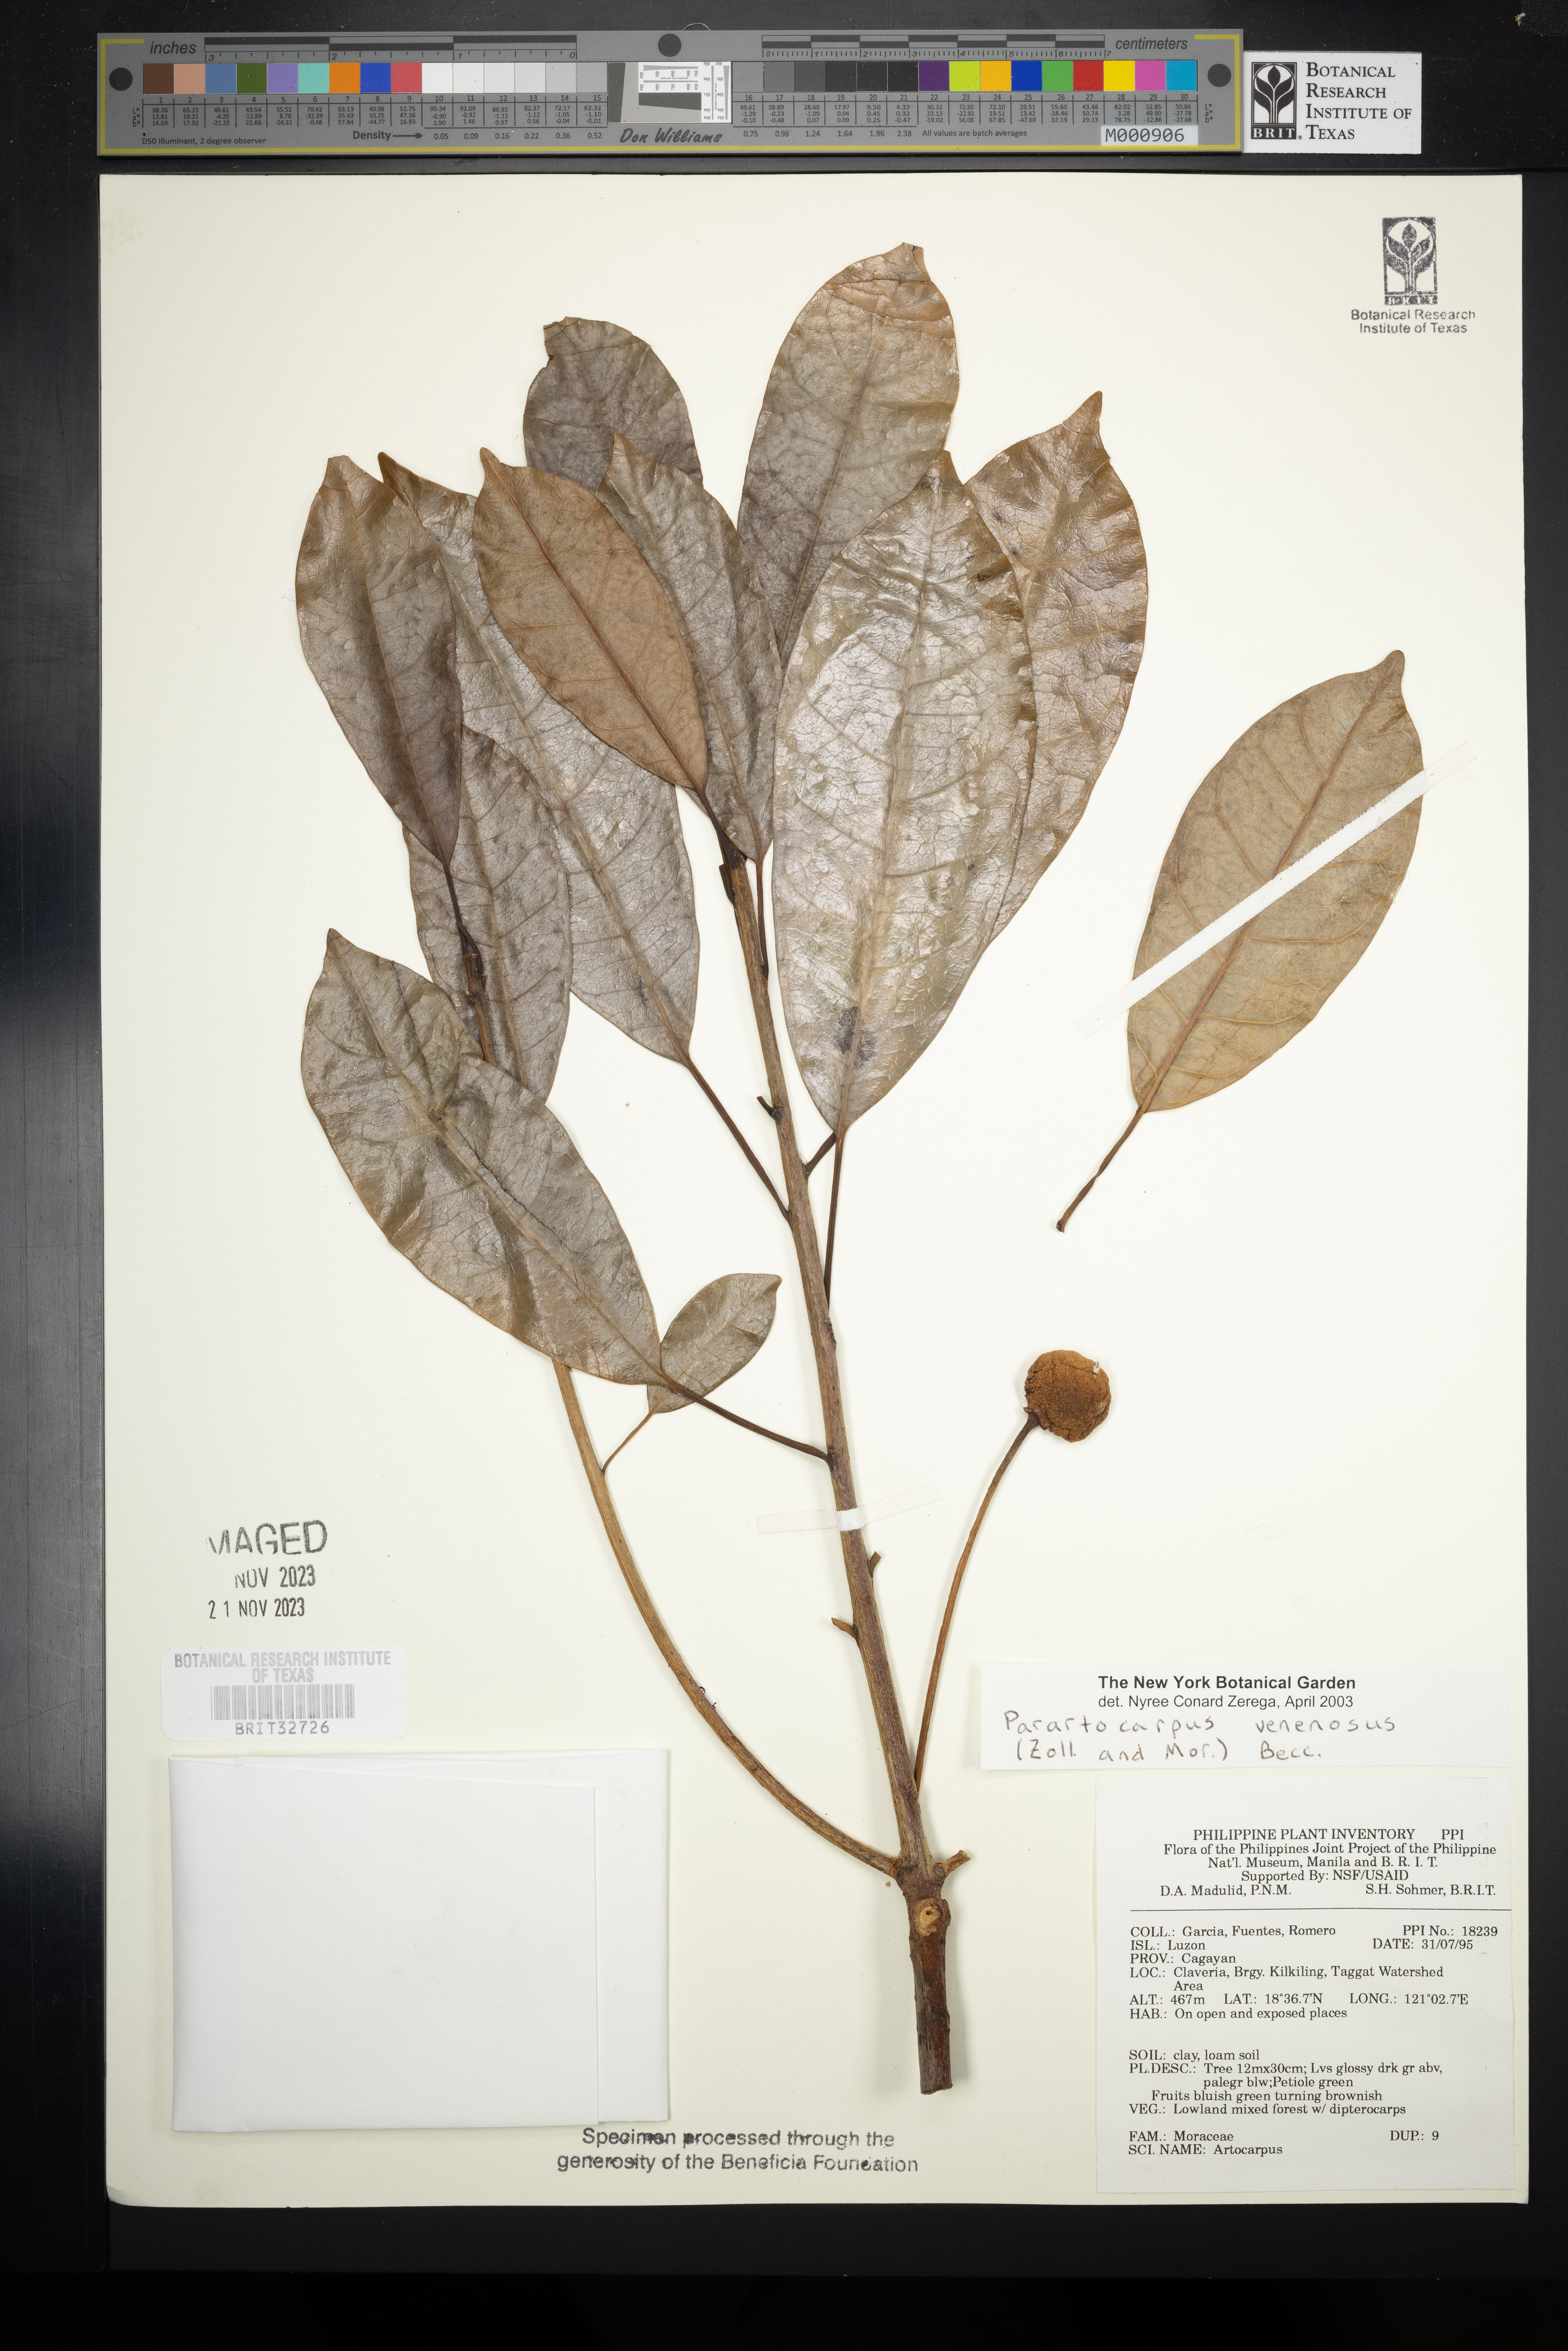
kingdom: Plantae
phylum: Tracheophyta
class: Magnoliopsida
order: Rosales
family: Moraceae
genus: Parartocarpus
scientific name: Parartocarpus venenosa
